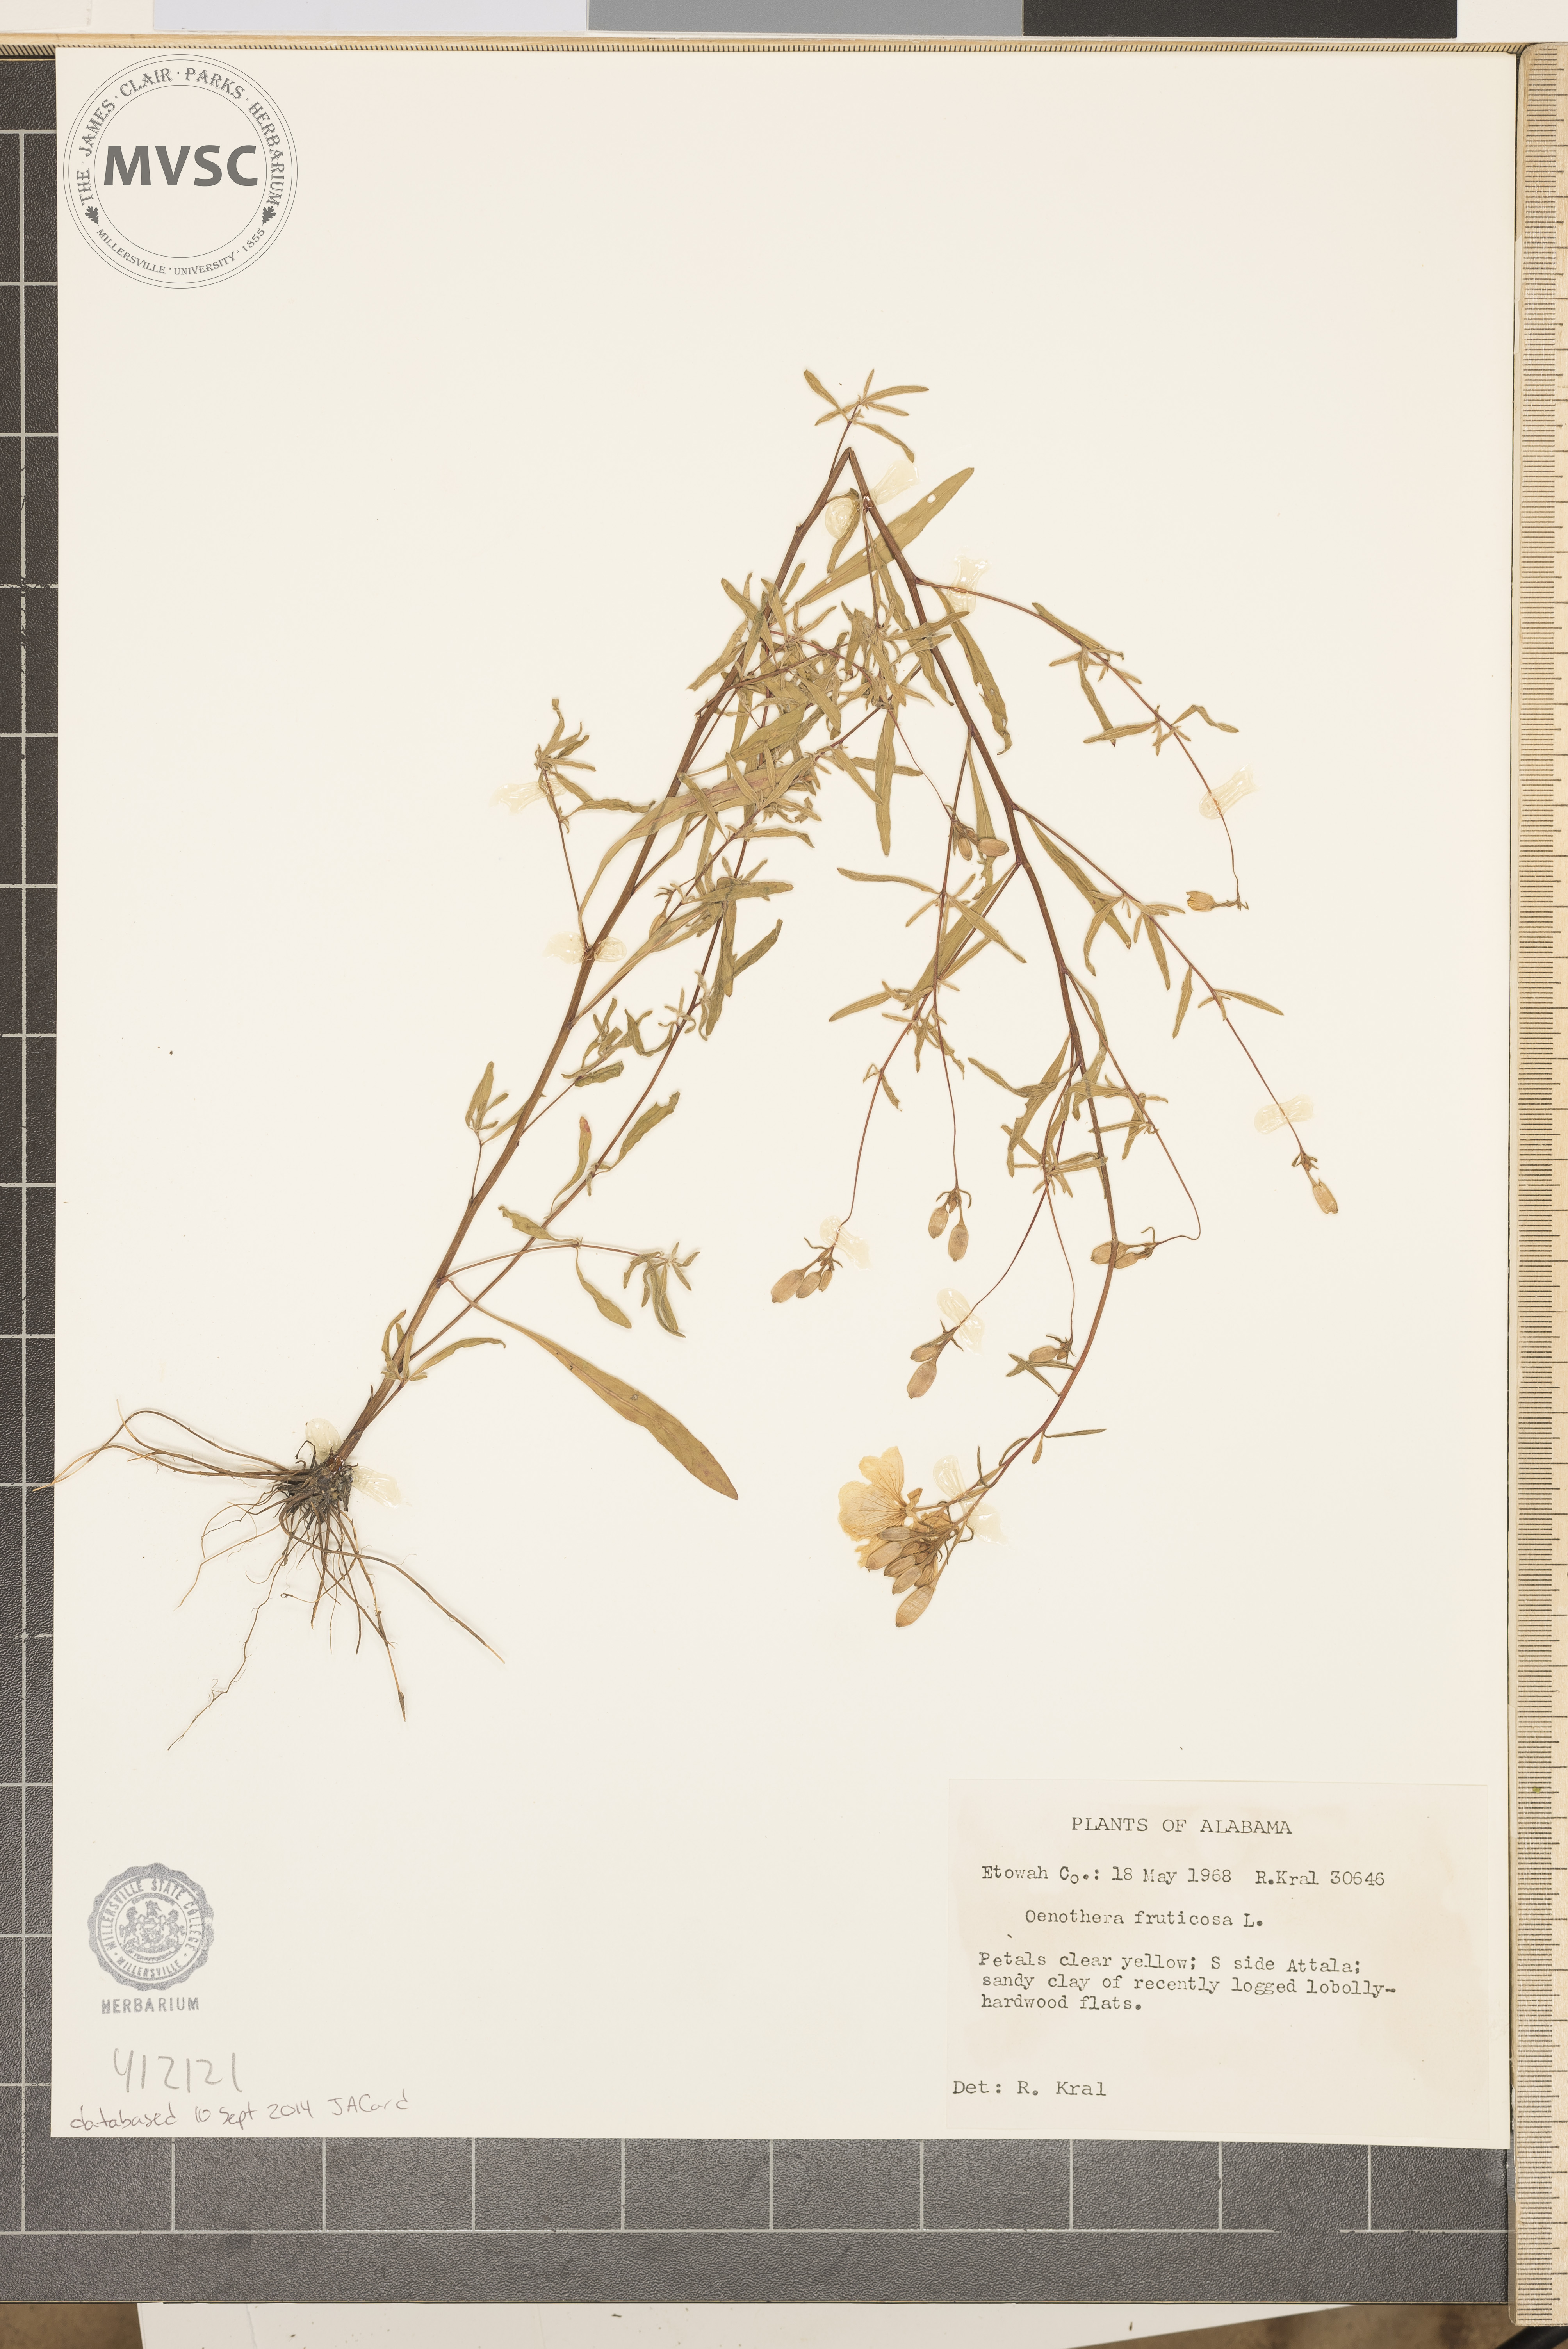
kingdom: Plantae
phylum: Tracheophyta
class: Magnoliopsida
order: Myrtales
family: Onagraceae
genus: Oenothera
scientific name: Oenothera fruticosa
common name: Southern sundrops
